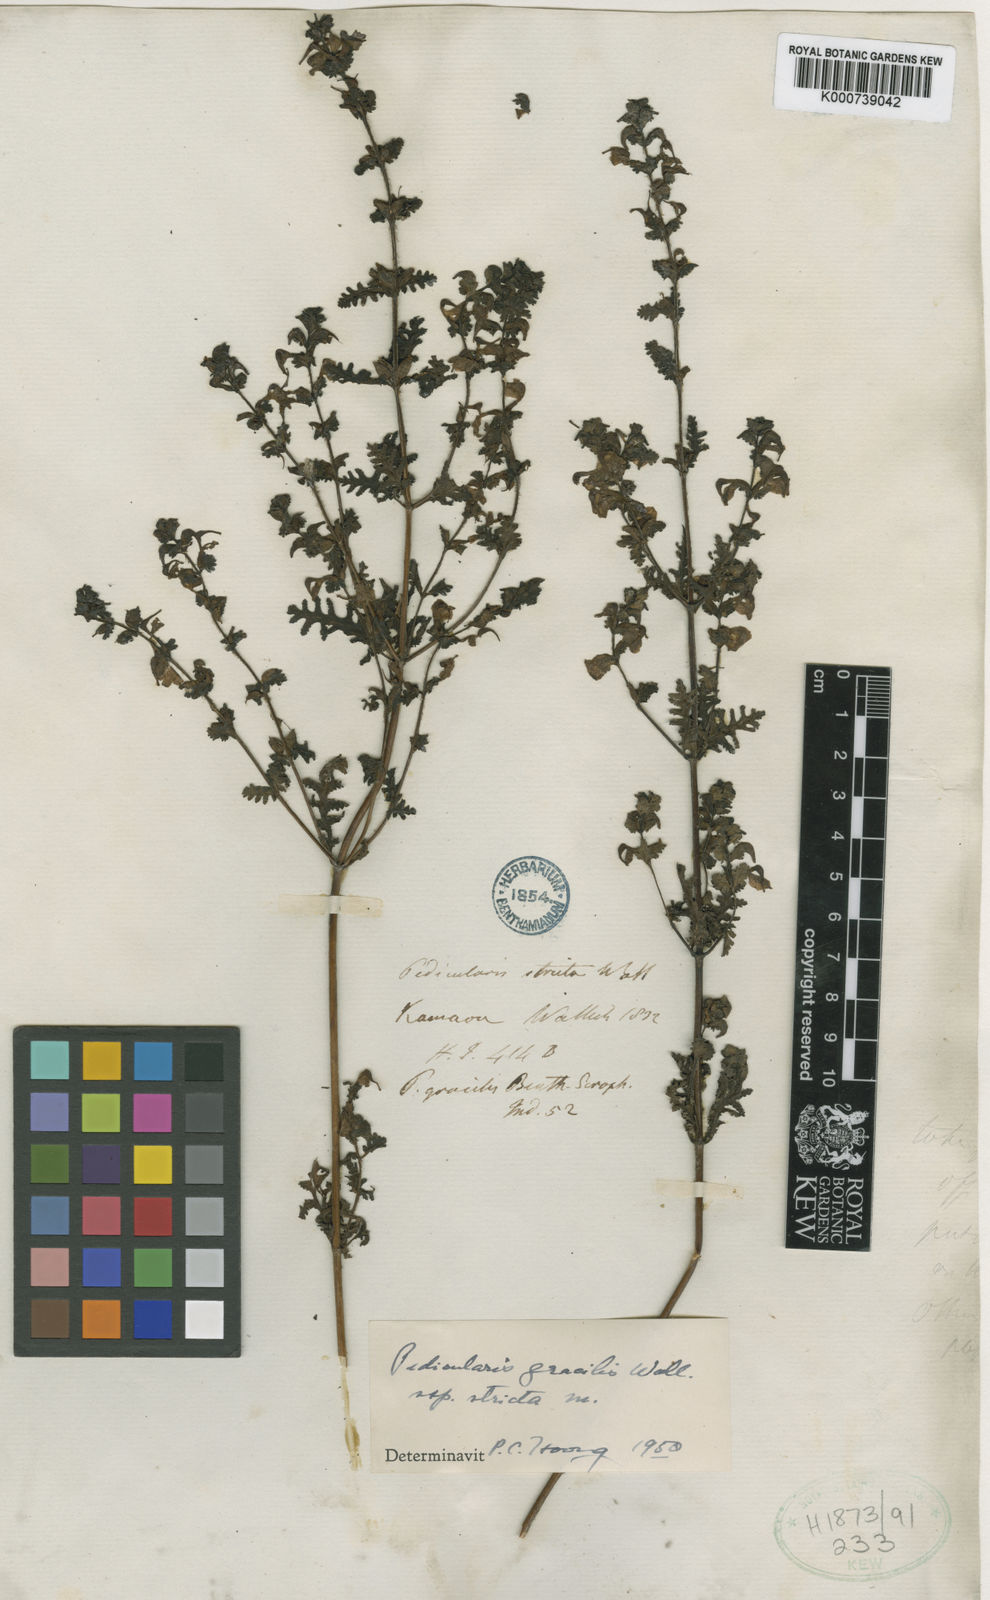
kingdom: Plantae
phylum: Tracheophyta
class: Magnoliopsida
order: Lamiales
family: Orobanchaceae
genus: Pedicularis
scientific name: Pedicularis gracilis
